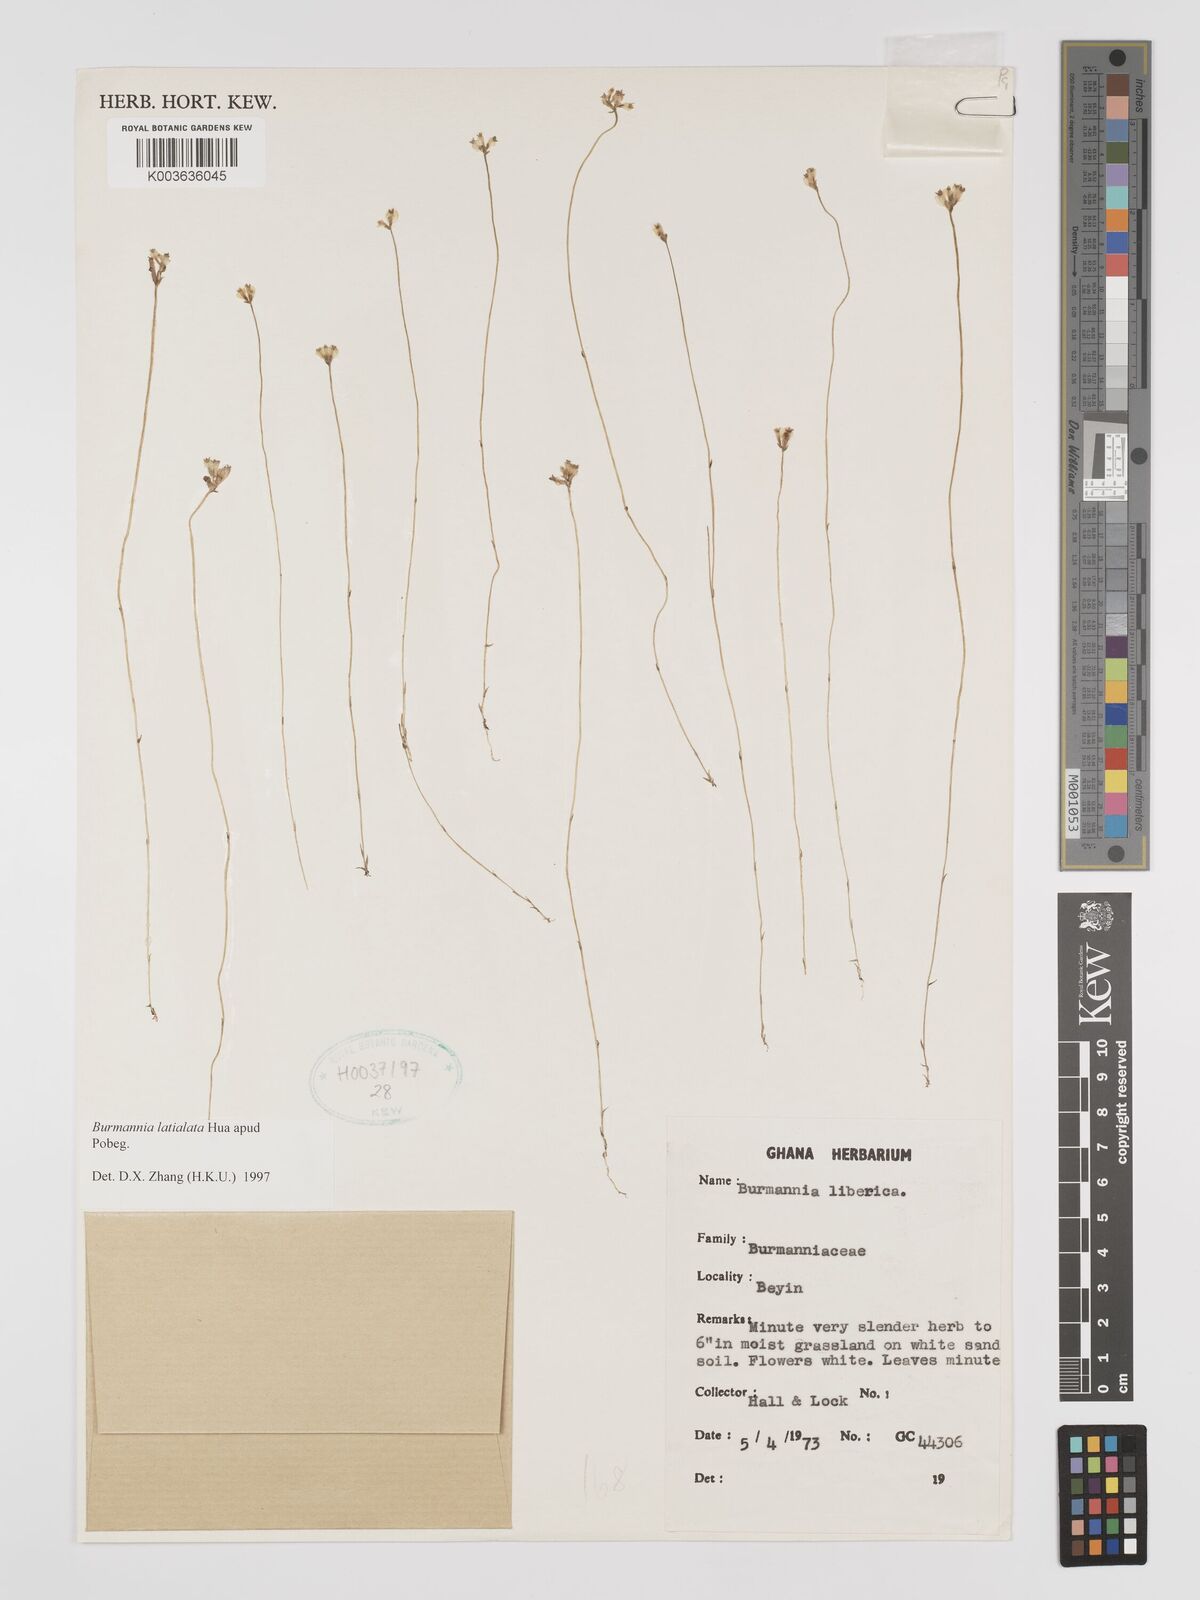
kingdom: Plantae
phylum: Tracheophyta
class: Liliopsida
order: Dioscoreales
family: Burmanniaceae
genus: Burmannia
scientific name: Burmannia madagascariensis
